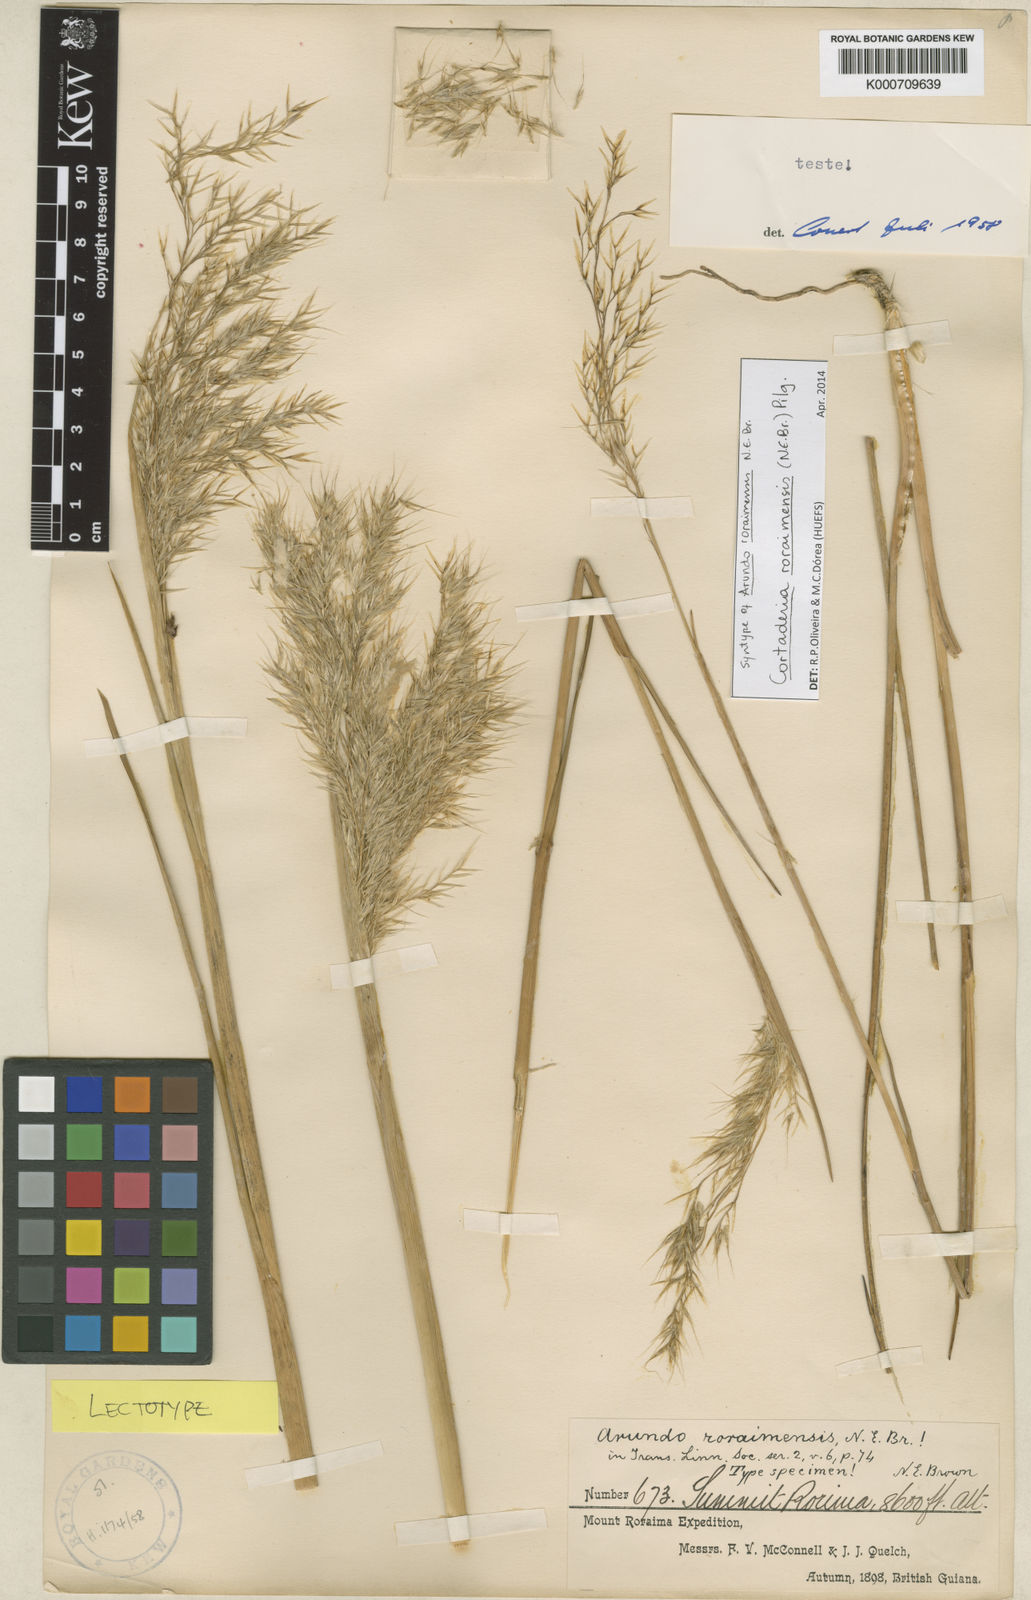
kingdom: Plantae
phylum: Tracheophyta
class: Liliopsida
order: Poales
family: Poaceae
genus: Cortaderia
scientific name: Cortaderia roraimensis
